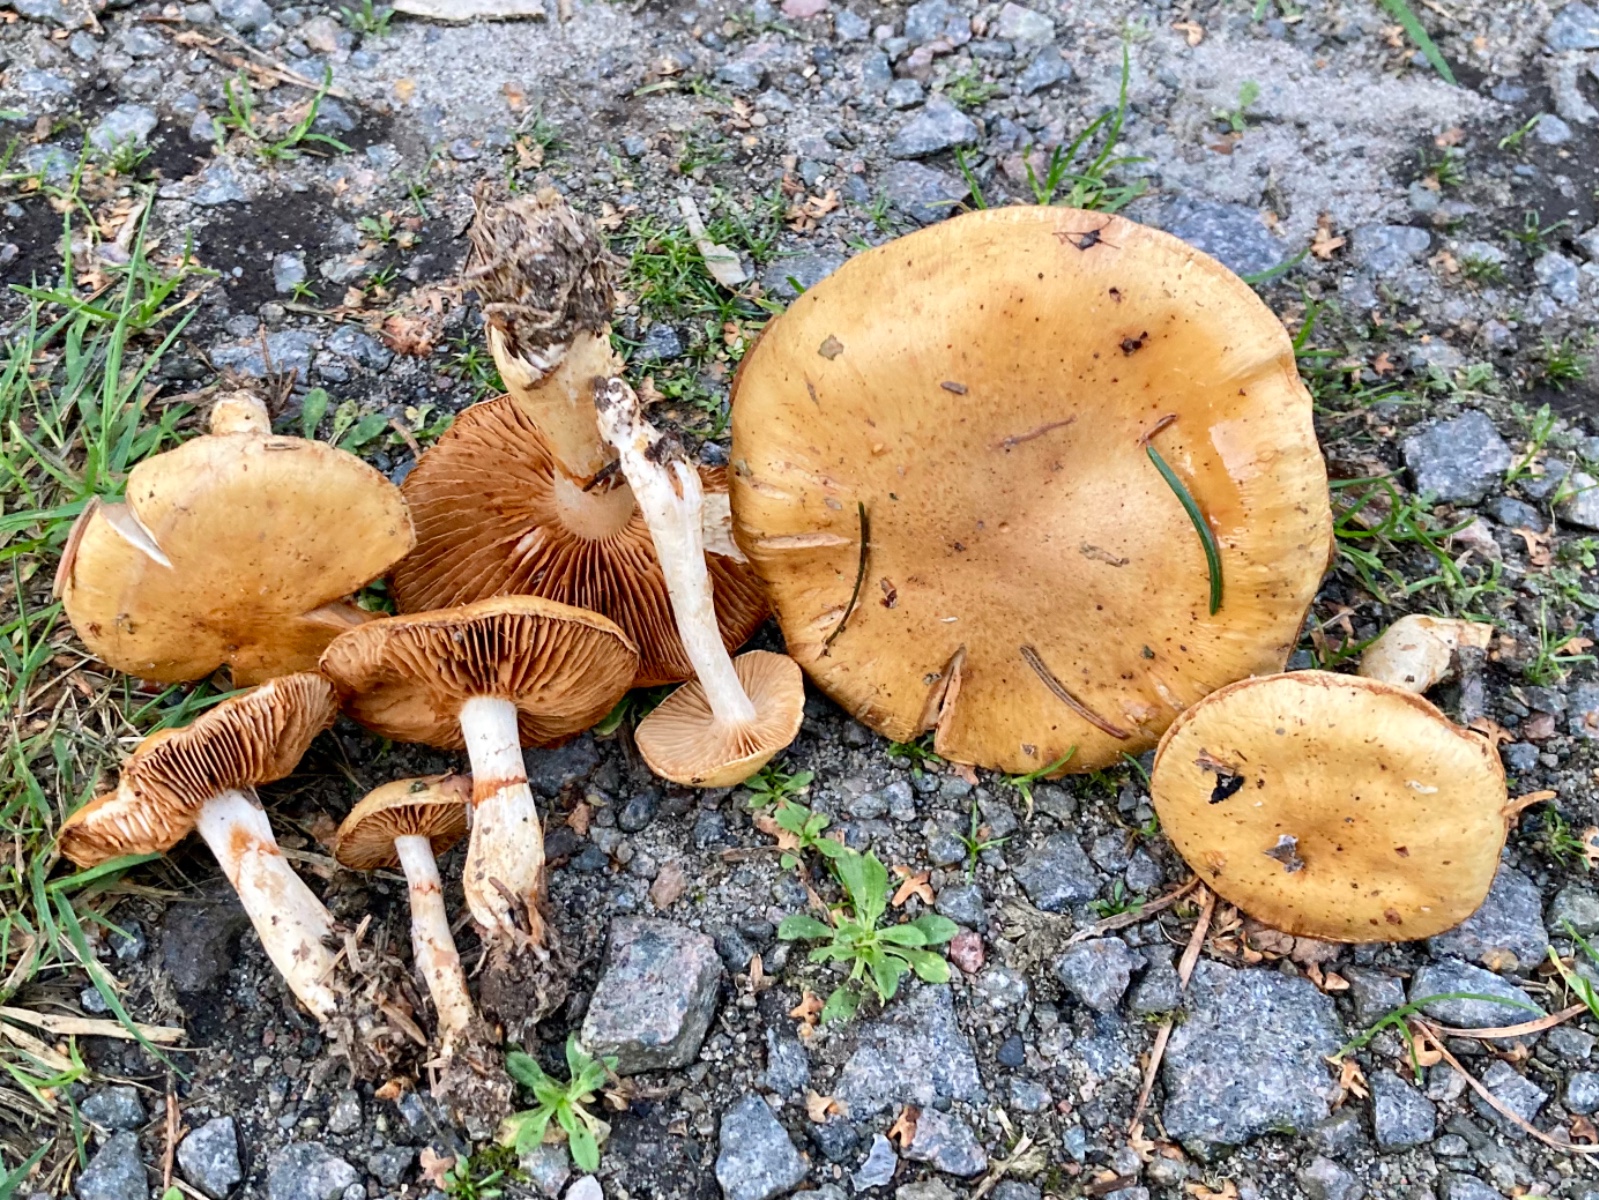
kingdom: Fungi
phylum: Basidiomycota
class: Agaricomycetes
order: Agaricales
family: Cortinariaceae
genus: Cortinarius
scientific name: Cortinarius
